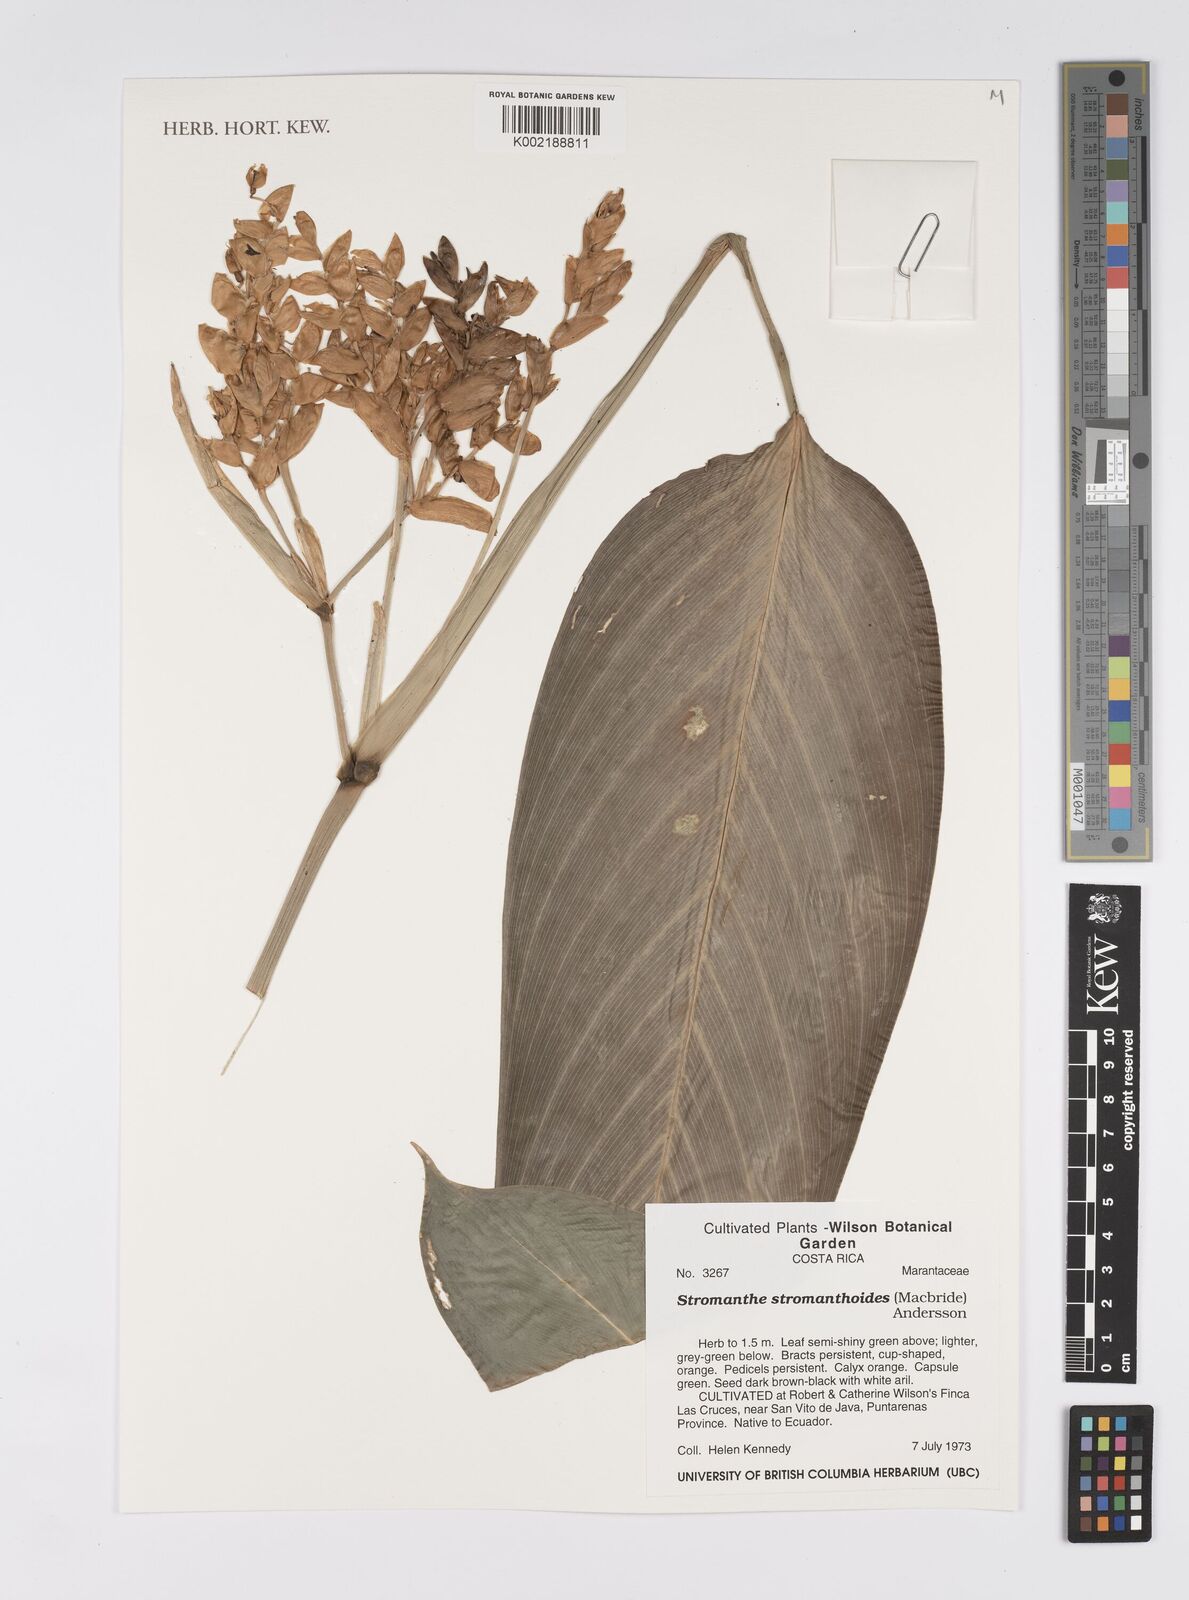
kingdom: Plantae
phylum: Tracheophyta
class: Liliopsida
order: Zingiberales
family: Marantaceae
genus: Stromanthe
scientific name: Stromanthe stromanthoides
